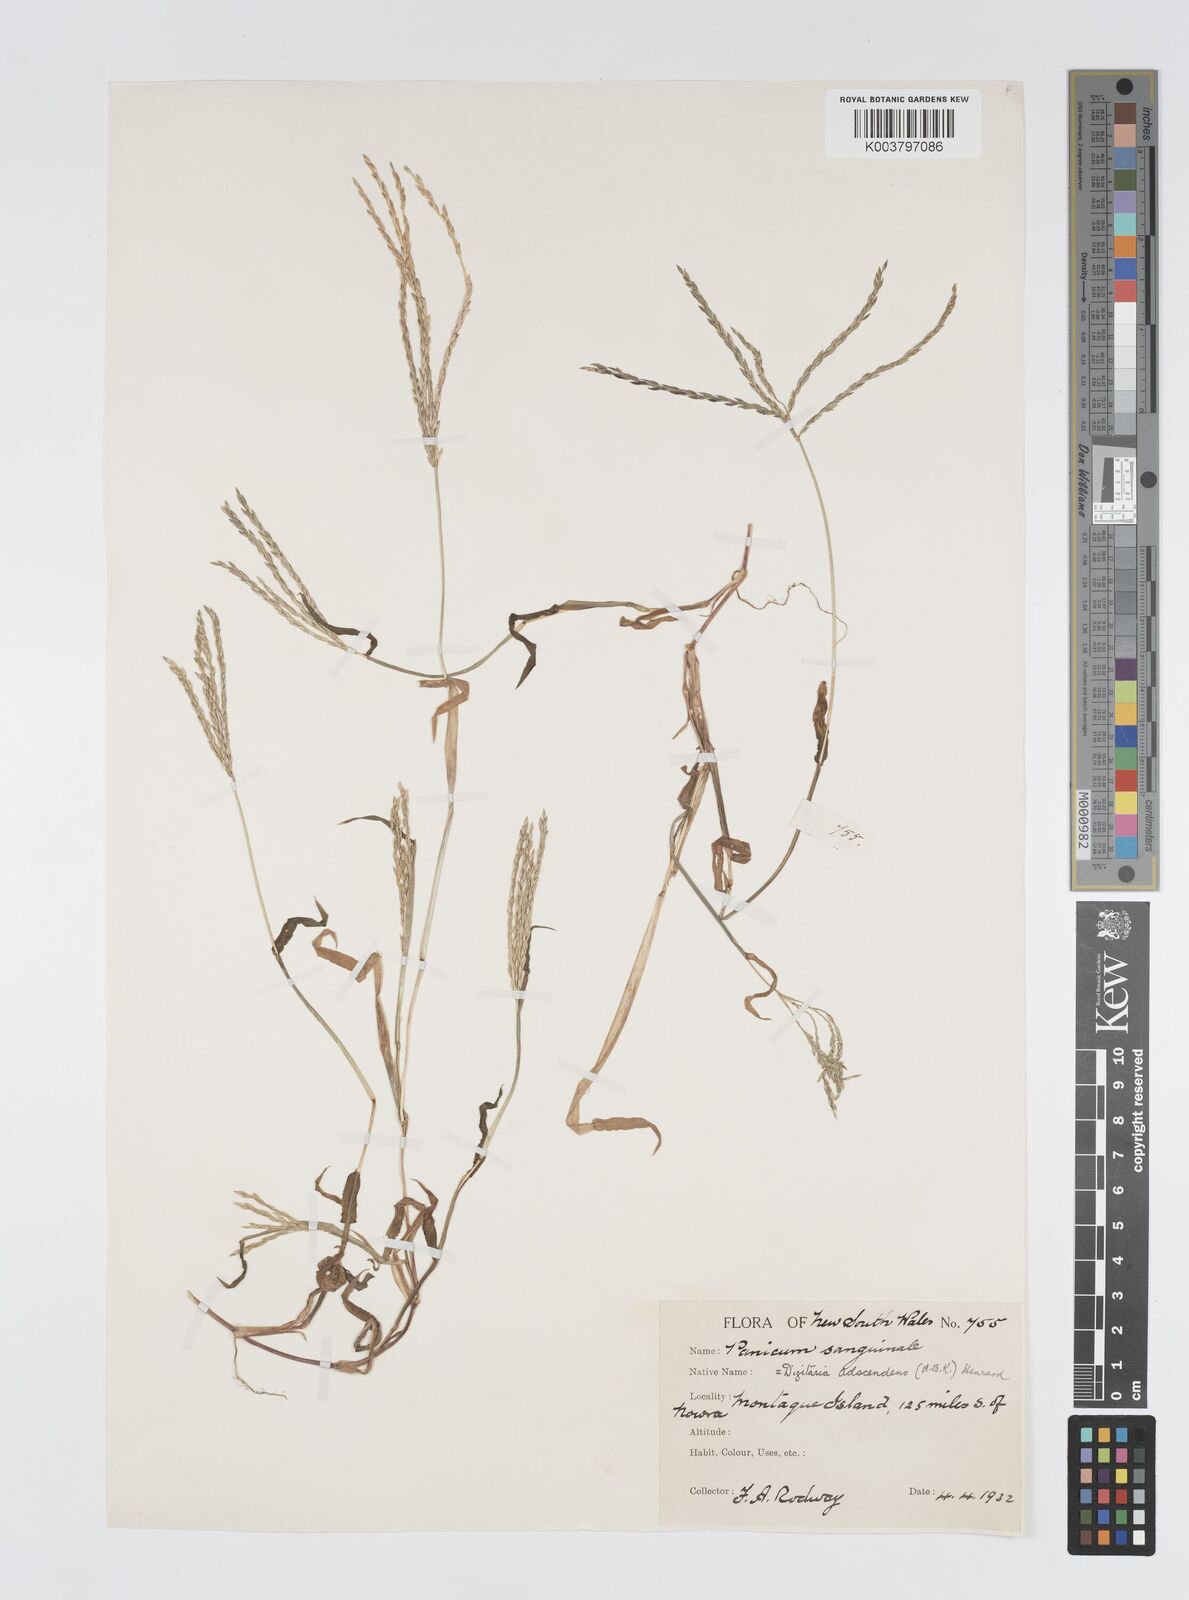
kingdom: Plantae
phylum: Tracheophyta
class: Liliopsida
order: Poales
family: Poaceae
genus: Digitaria
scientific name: Digitaria ciliaris
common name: Tropical finger-grass
